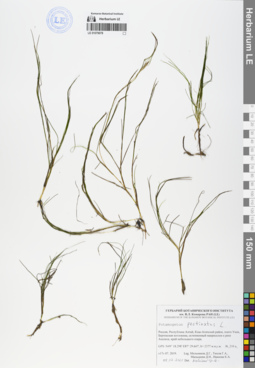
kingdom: Plantae
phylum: Tracheophyta
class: Liliopsida
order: Alismatales
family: Potamogetonaceae
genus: Stuckenia
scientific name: Stuckenia pectinata
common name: Sago pondweed
